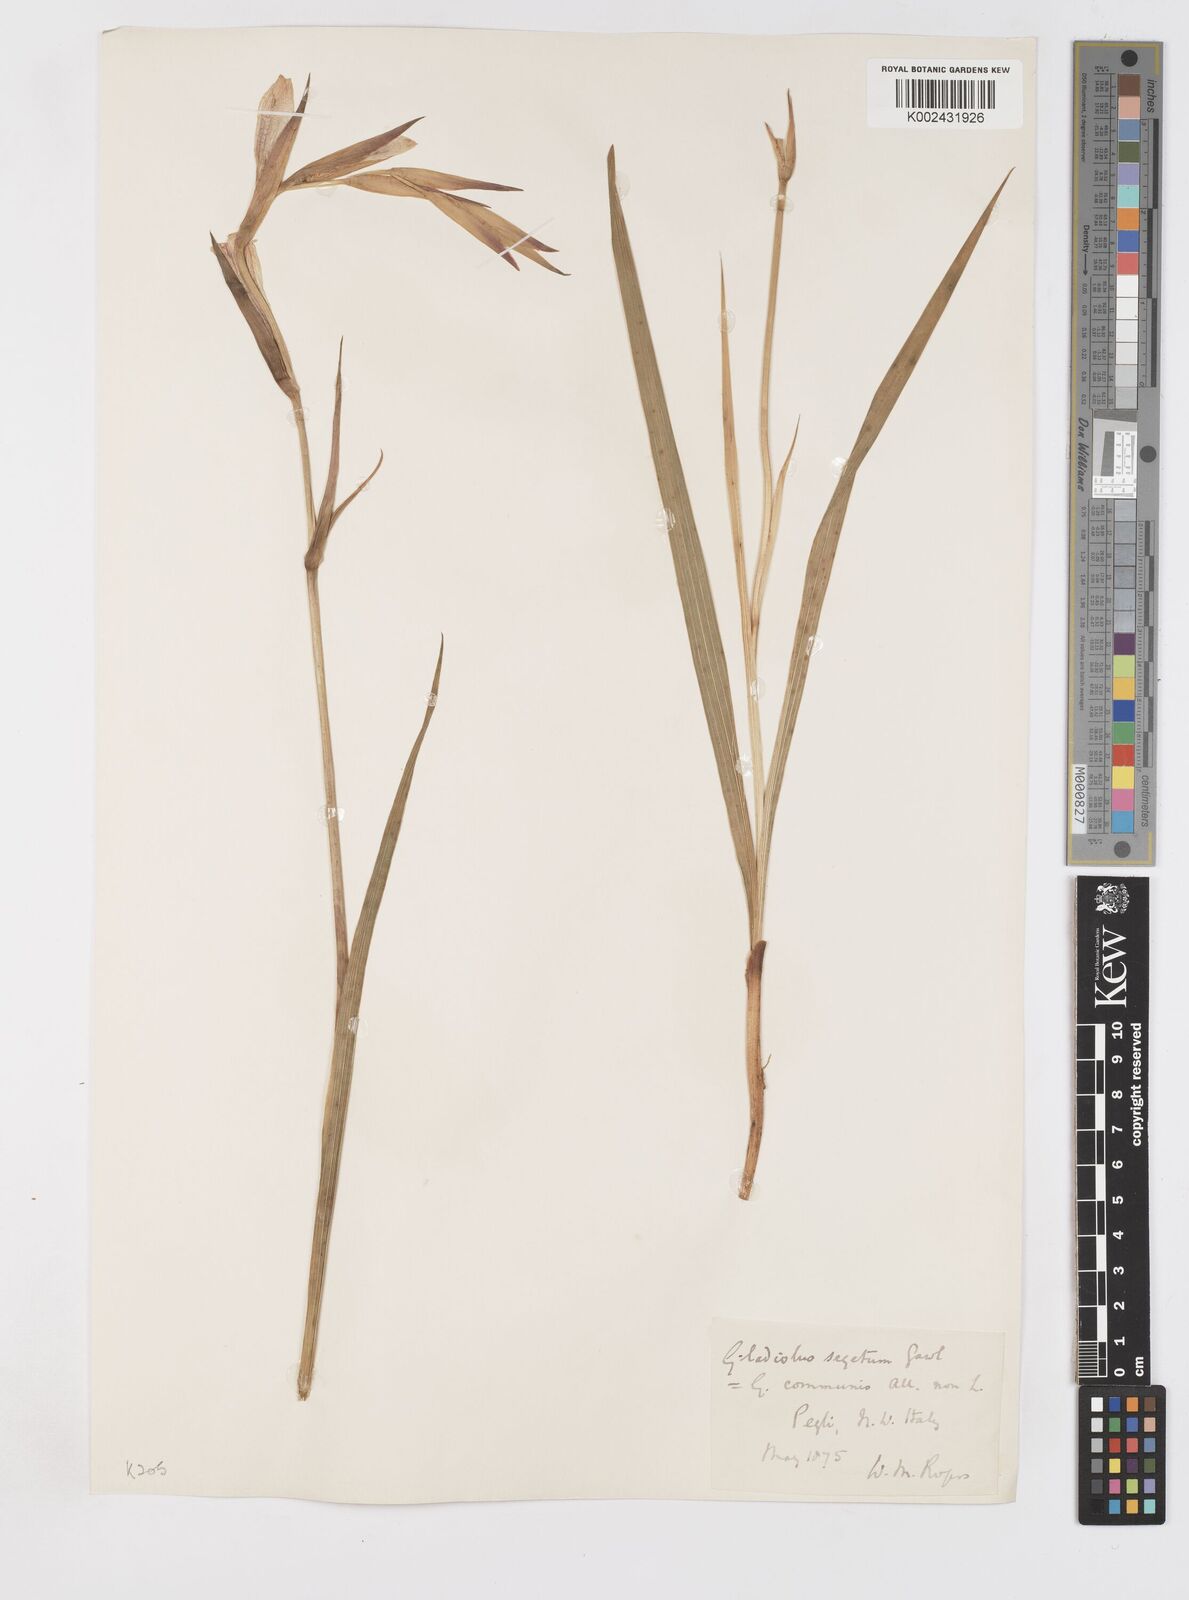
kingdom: Plantae
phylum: Tracheophyta
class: Liliopsida
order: Asparagales
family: Iridaceae
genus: Gladiolus
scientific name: Gladiolus italicus
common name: Field gladiolus
